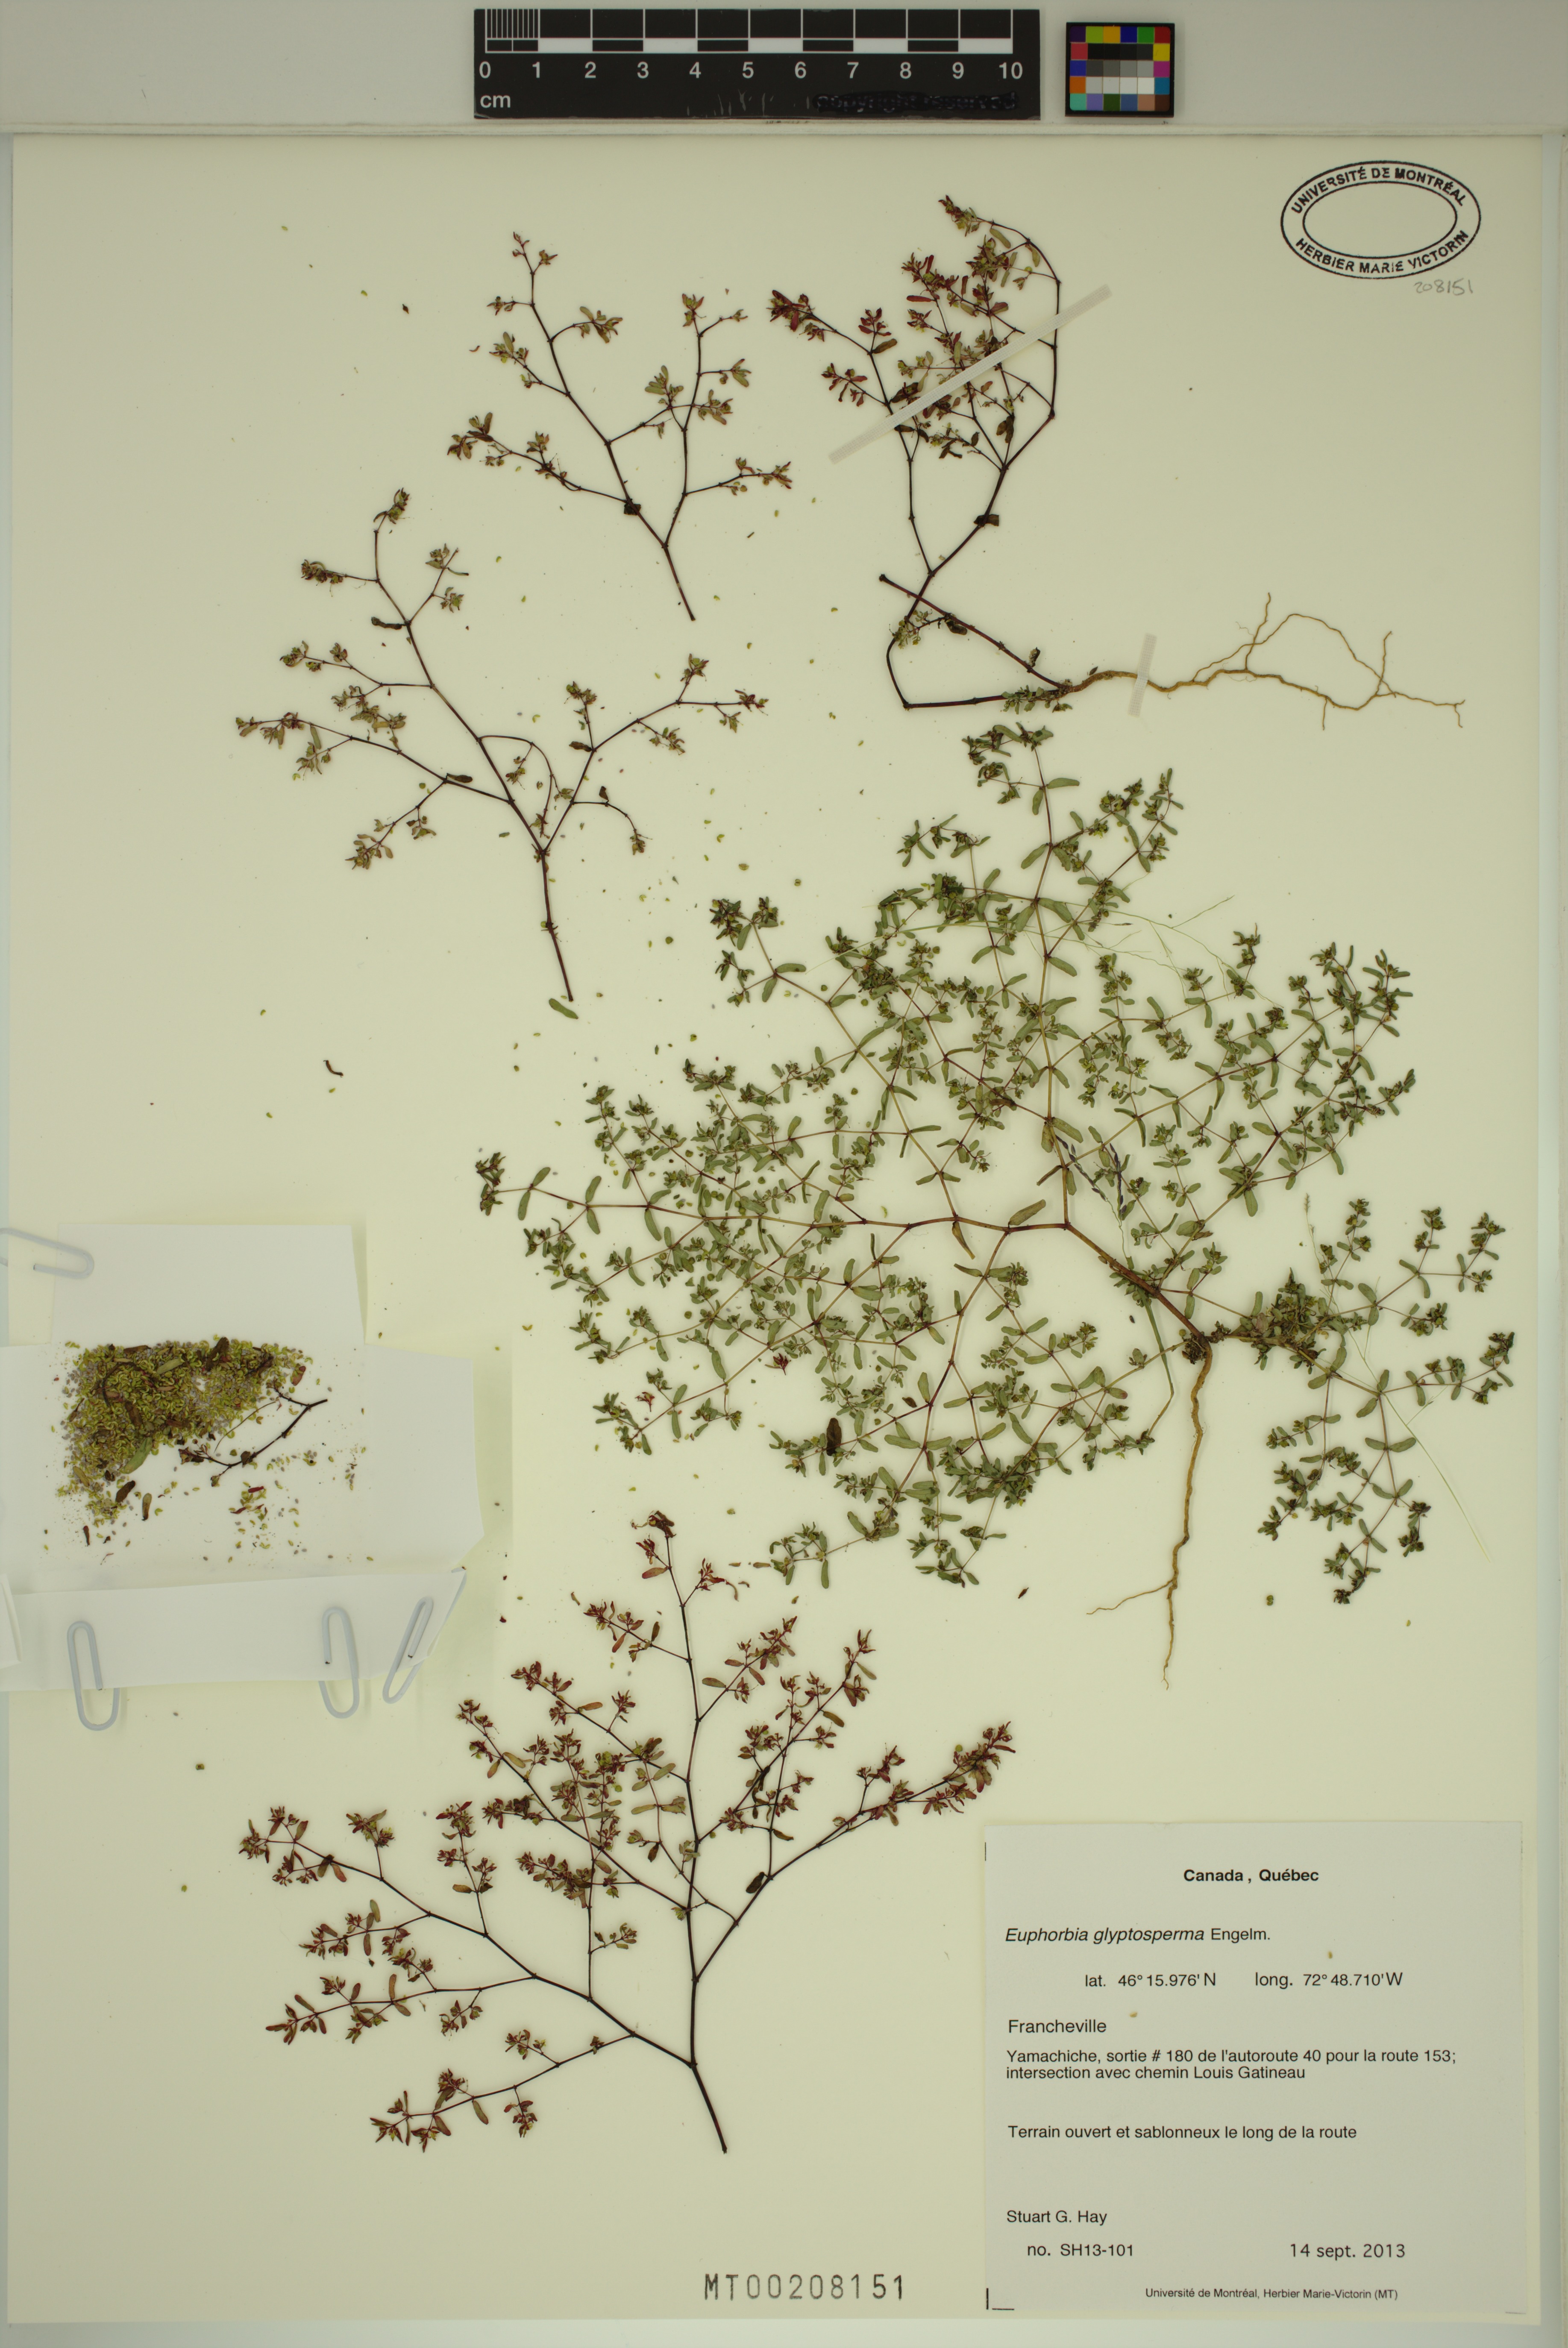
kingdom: Plantae
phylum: Tracheophyta
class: Magnoliopsida
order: Malpighiales
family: Euphorbiaceae
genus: Euphorbia
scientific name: Euphorbia glyptosperma
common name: Corrugate-seeded spurge
